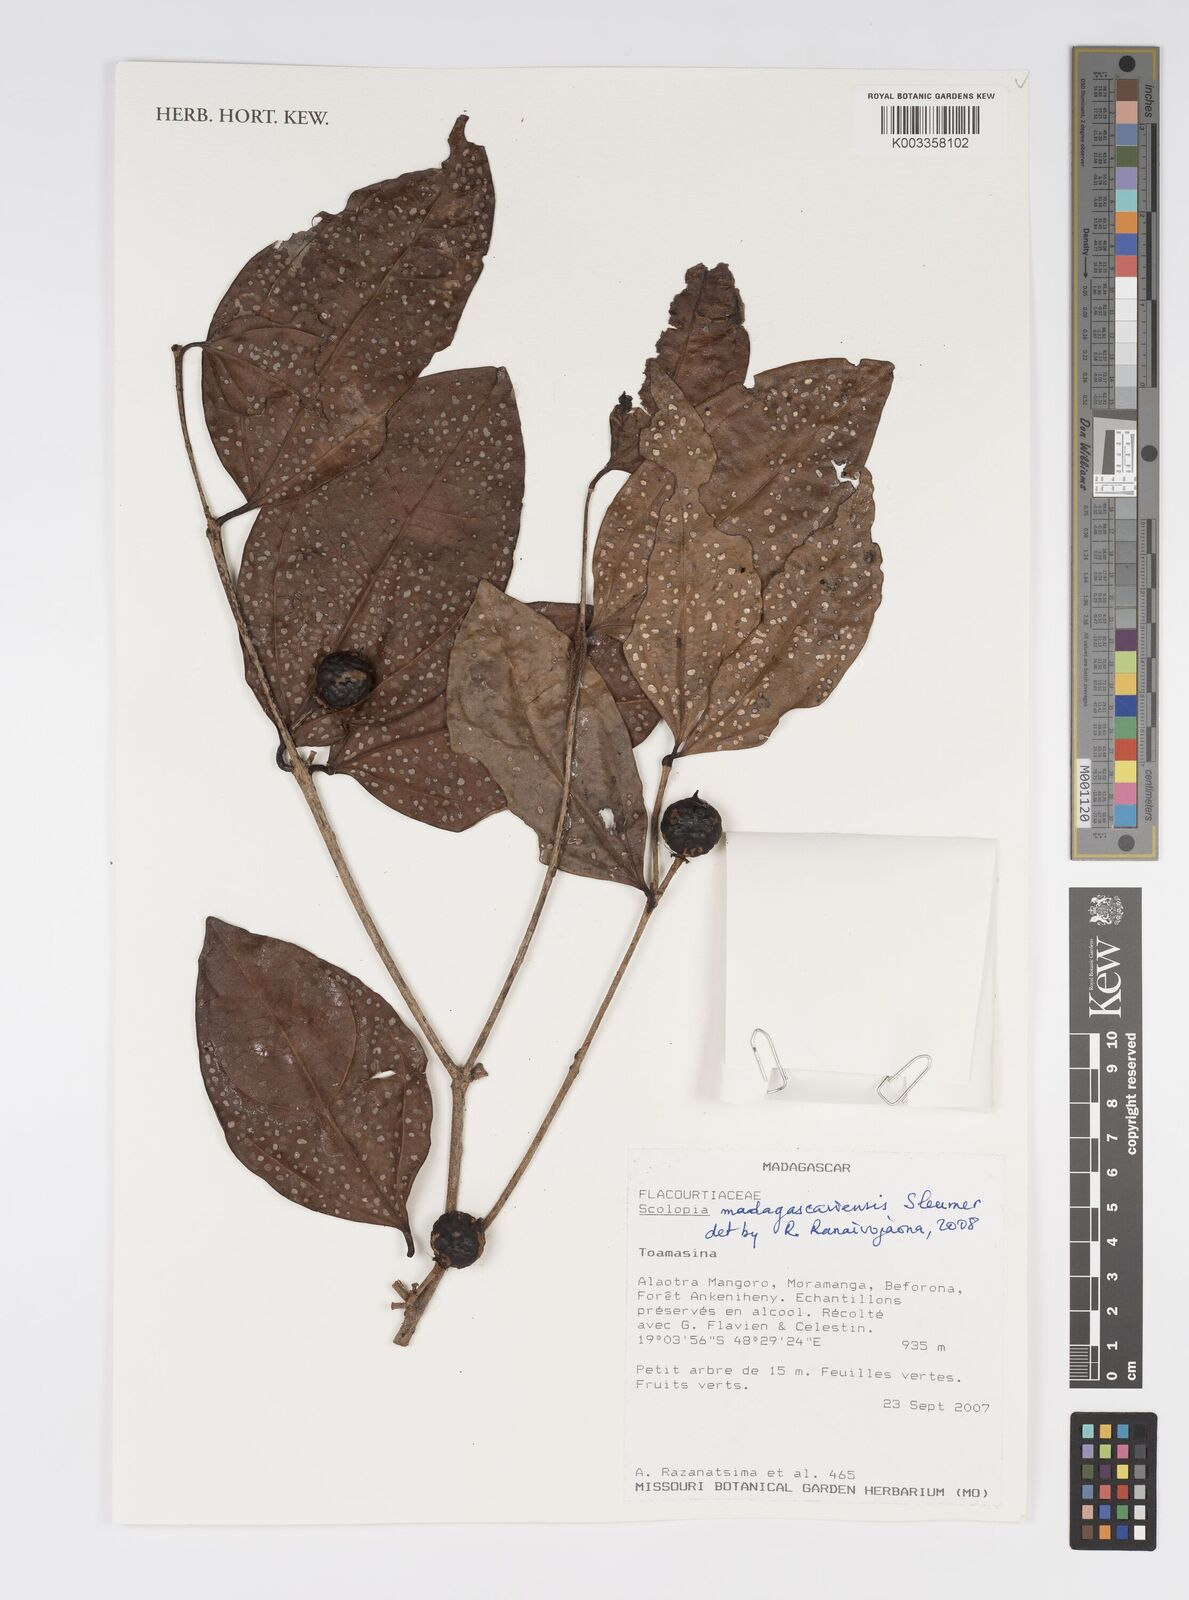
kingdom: Plantae
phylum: Tracheophyta
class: Magnoliopsida
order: Malpighiales
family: Salicaceae
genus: Scolopia
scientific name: Scolopia madagascariensis
